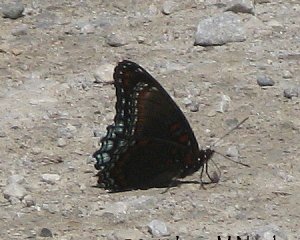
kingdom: Animalia
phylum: Arthropoda
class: Insecta
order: Lepidoptera
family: Nymphalidae
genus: Limenitis
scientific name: Limenitis astyanax
